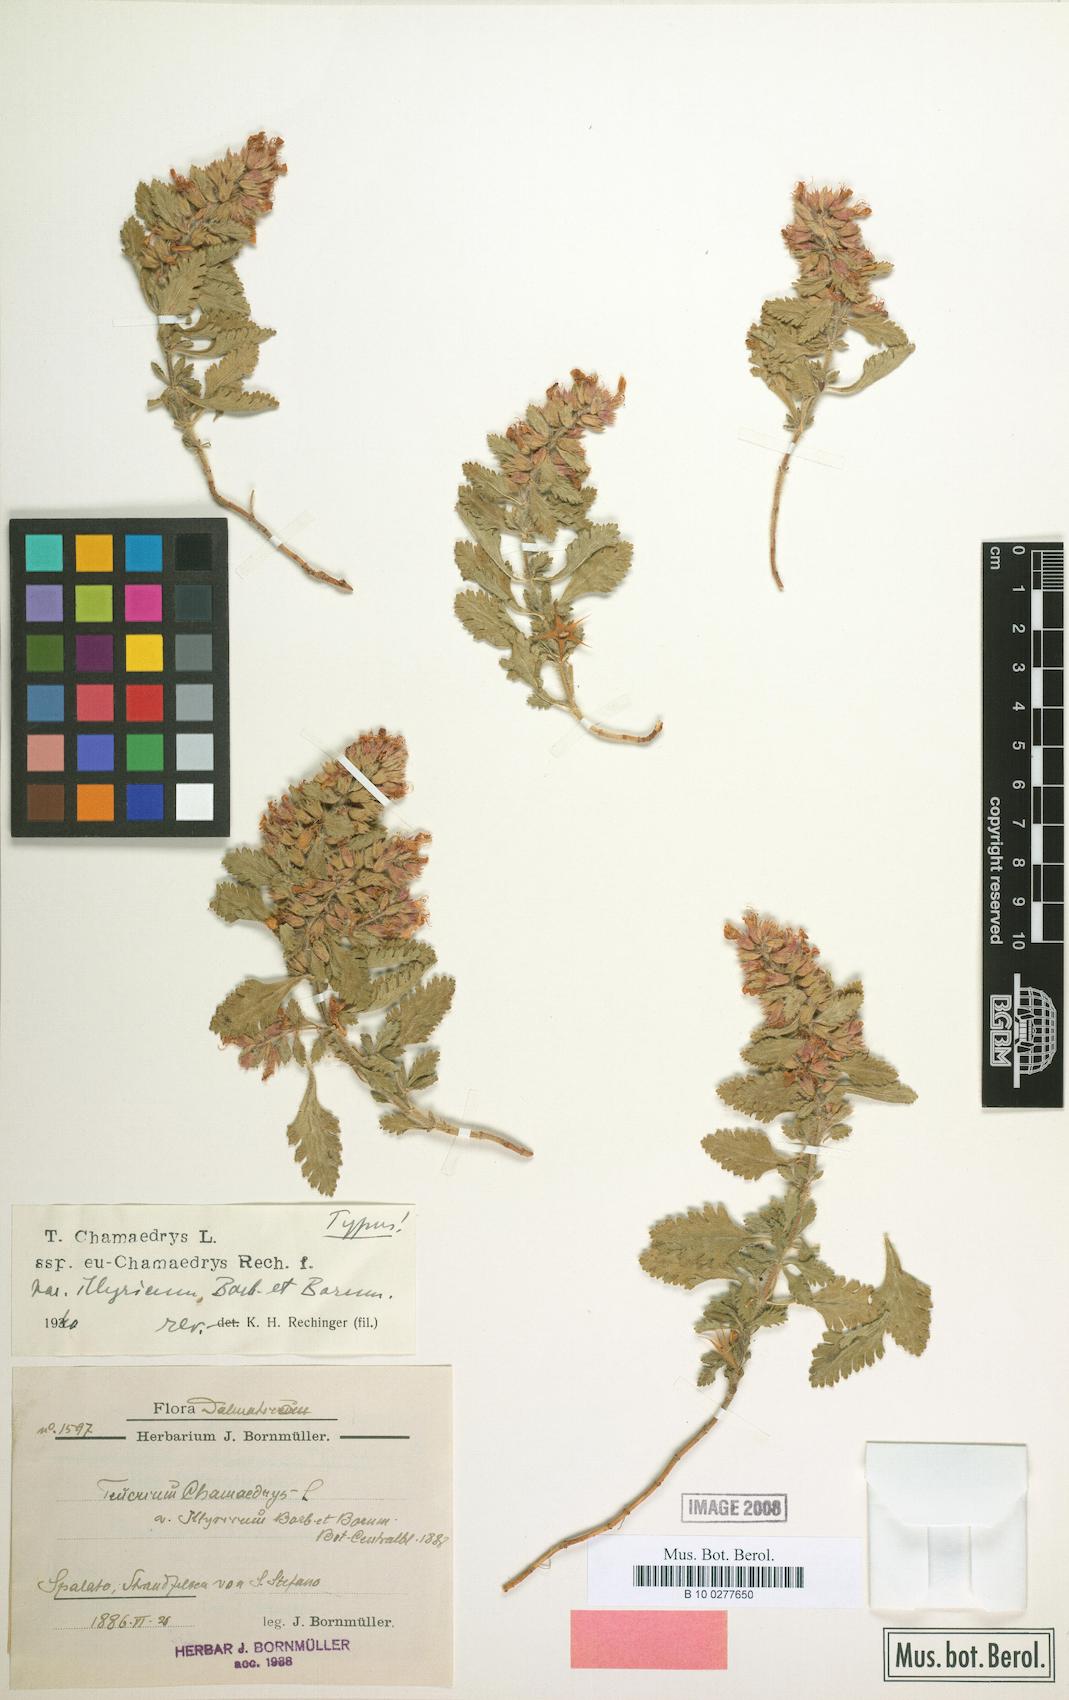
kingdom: Plantae
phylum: Tracheophyta
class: Magnoliopsida
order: Lamiales
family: Lamiaceae
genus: Teucrium
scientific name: Teucrium chamaedrys
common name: Wall germander
